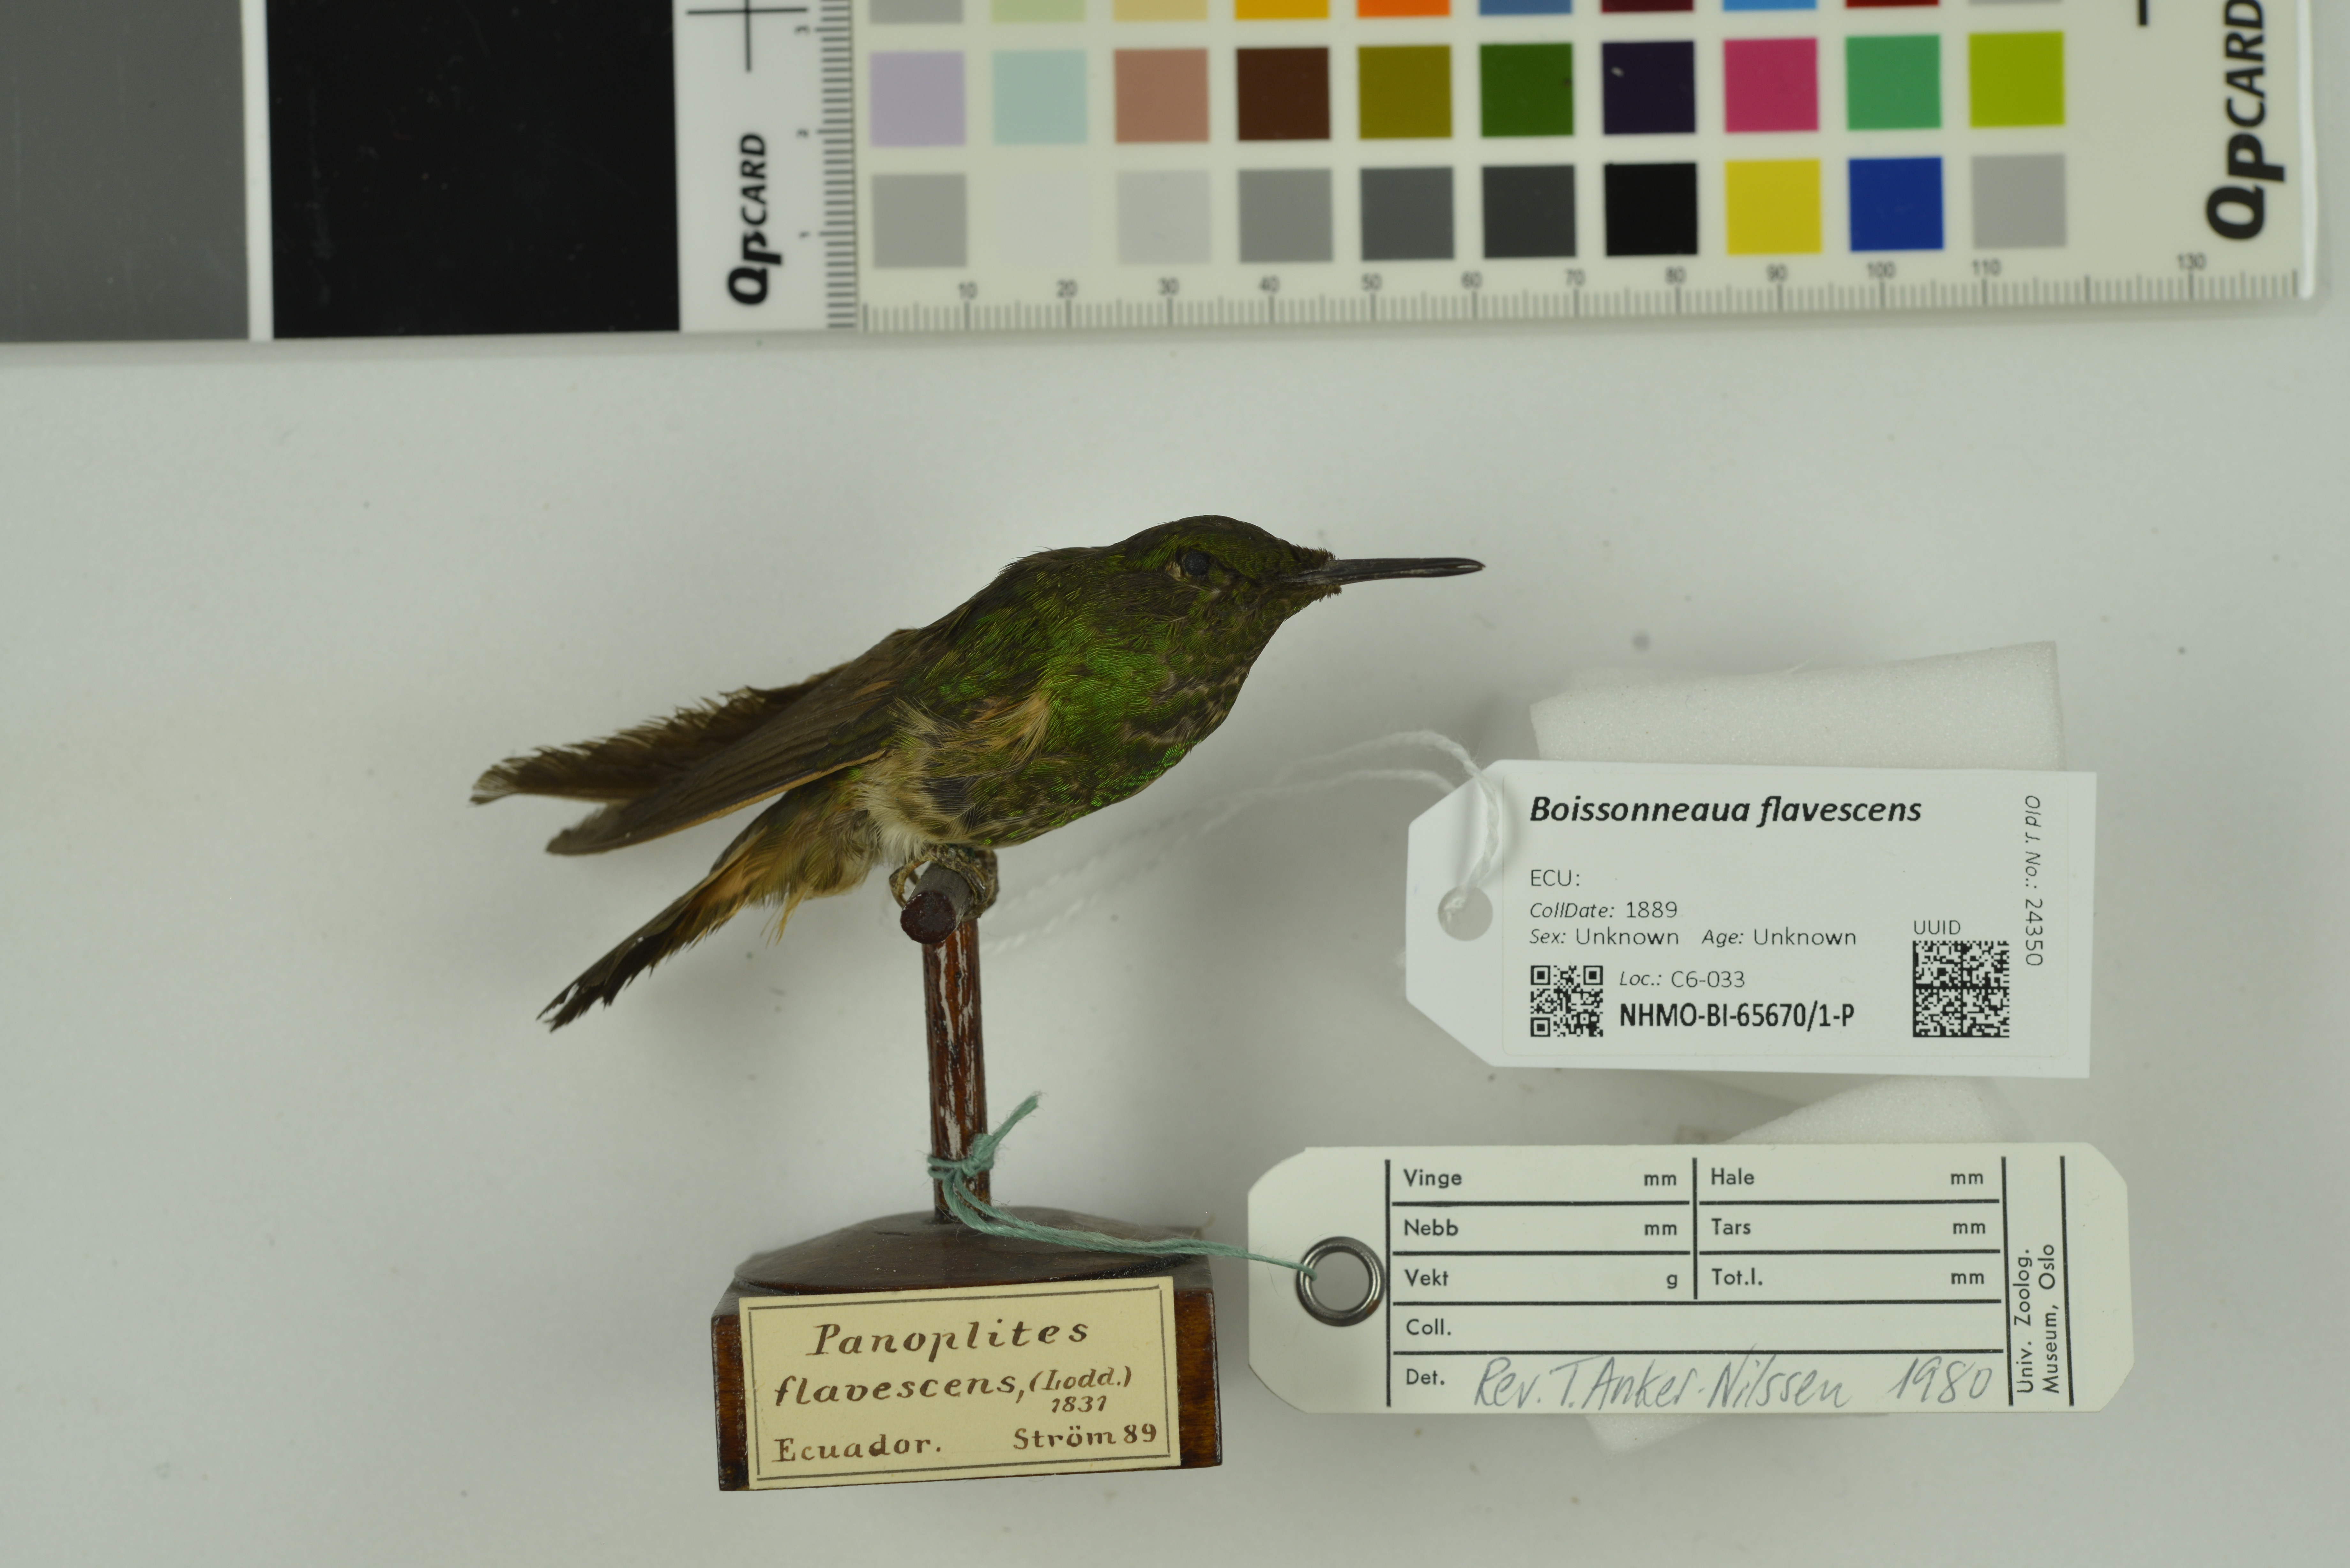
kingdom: Animalia
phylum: Chordata
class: Aves
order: Apodiformes
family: Trochilidae
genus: Boissonneaua
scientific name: Boissonneaua flavescens
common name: Buff-tailed coronet
